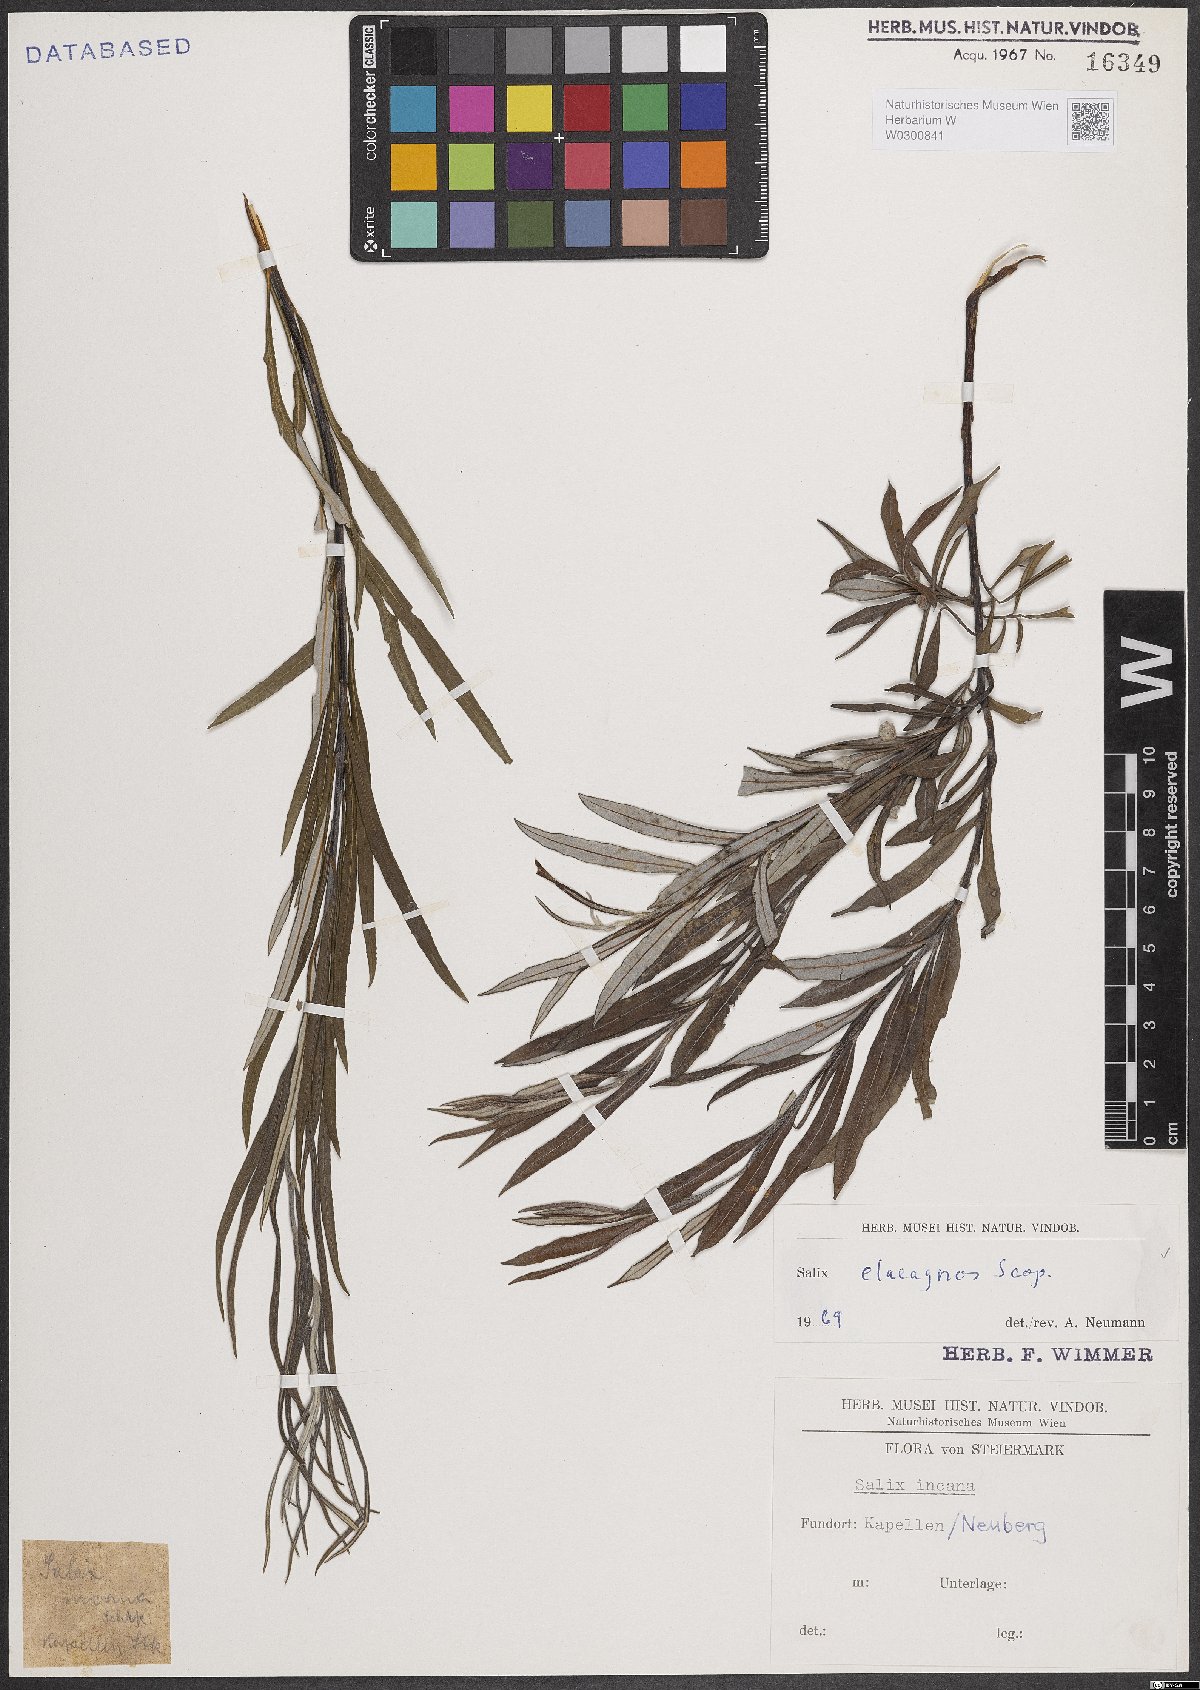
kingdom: Plantae
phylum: Tracheophyta
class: Magnoliopsida
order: Malpighiales
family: Salicaceae
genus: Salix
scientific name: Salix eleagnos
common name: Elaeagnus willow
